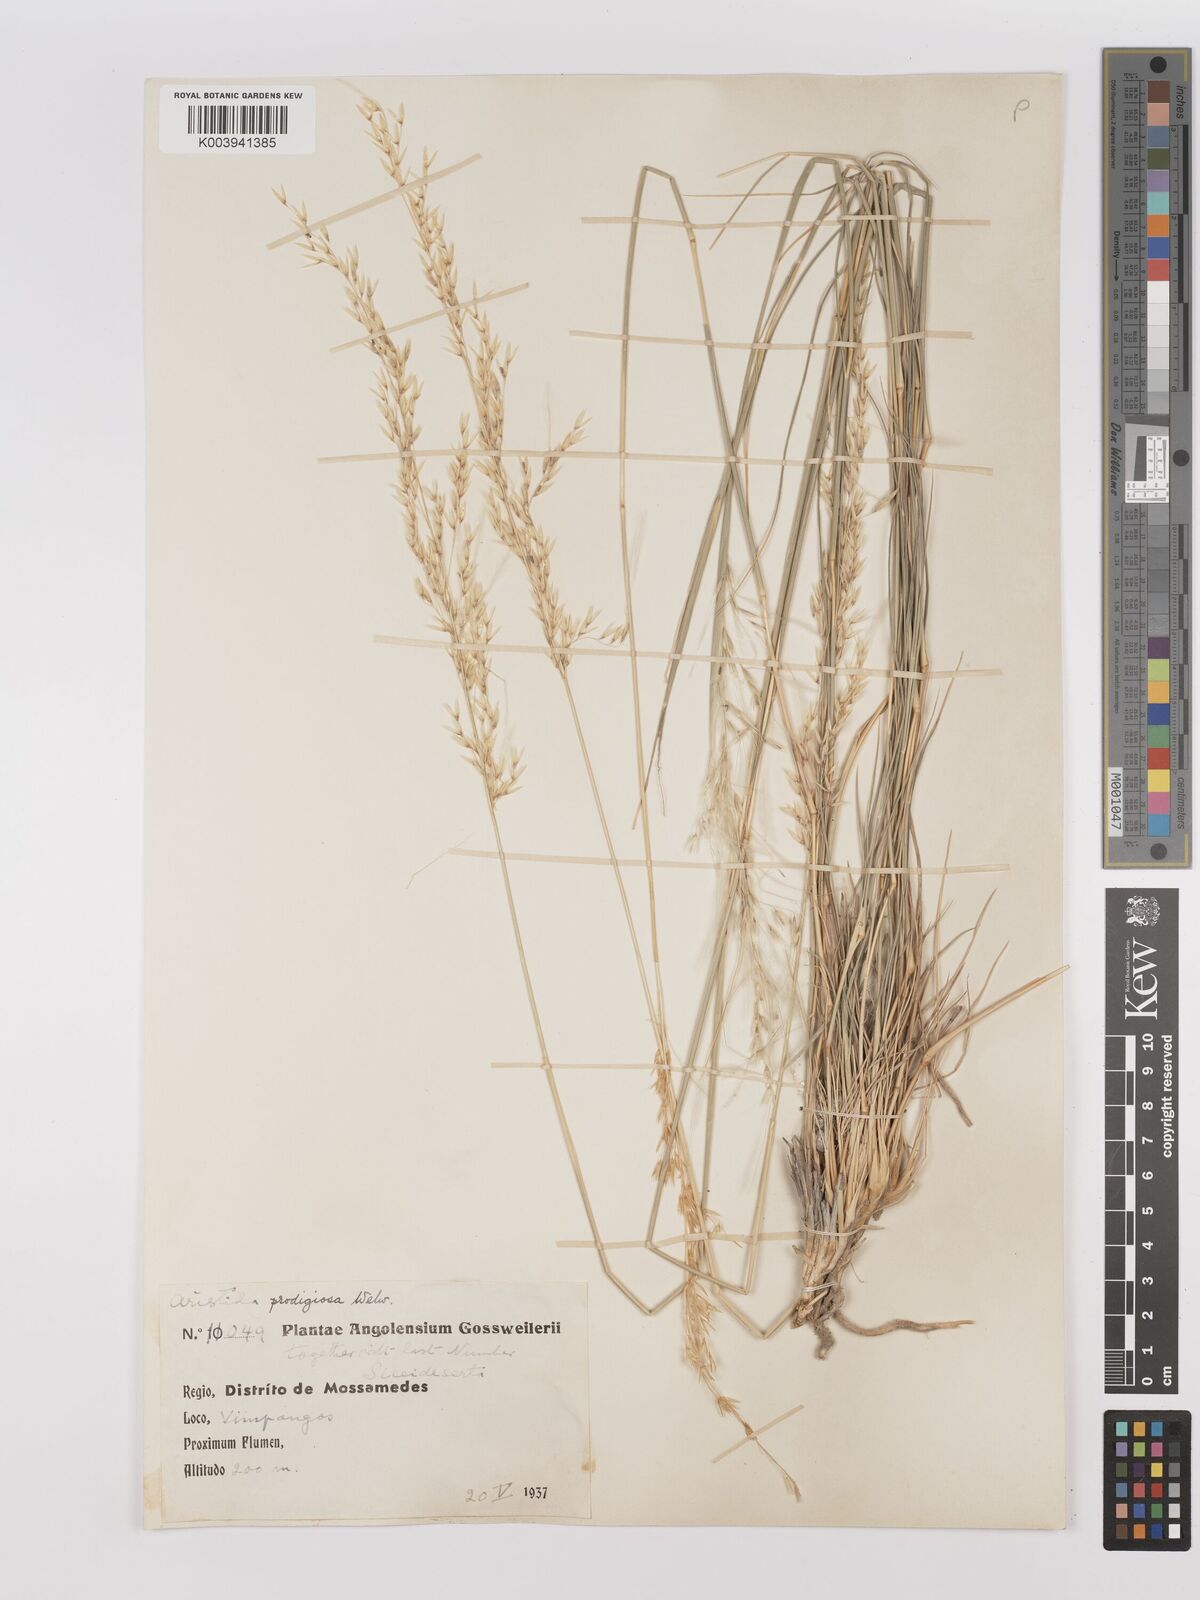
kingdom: Plantae
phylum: Tracheophyta
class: Liliopsida
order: Poales
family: Poaceae
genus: Stipagrostis
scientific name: Stipagrostis prodigiosa
